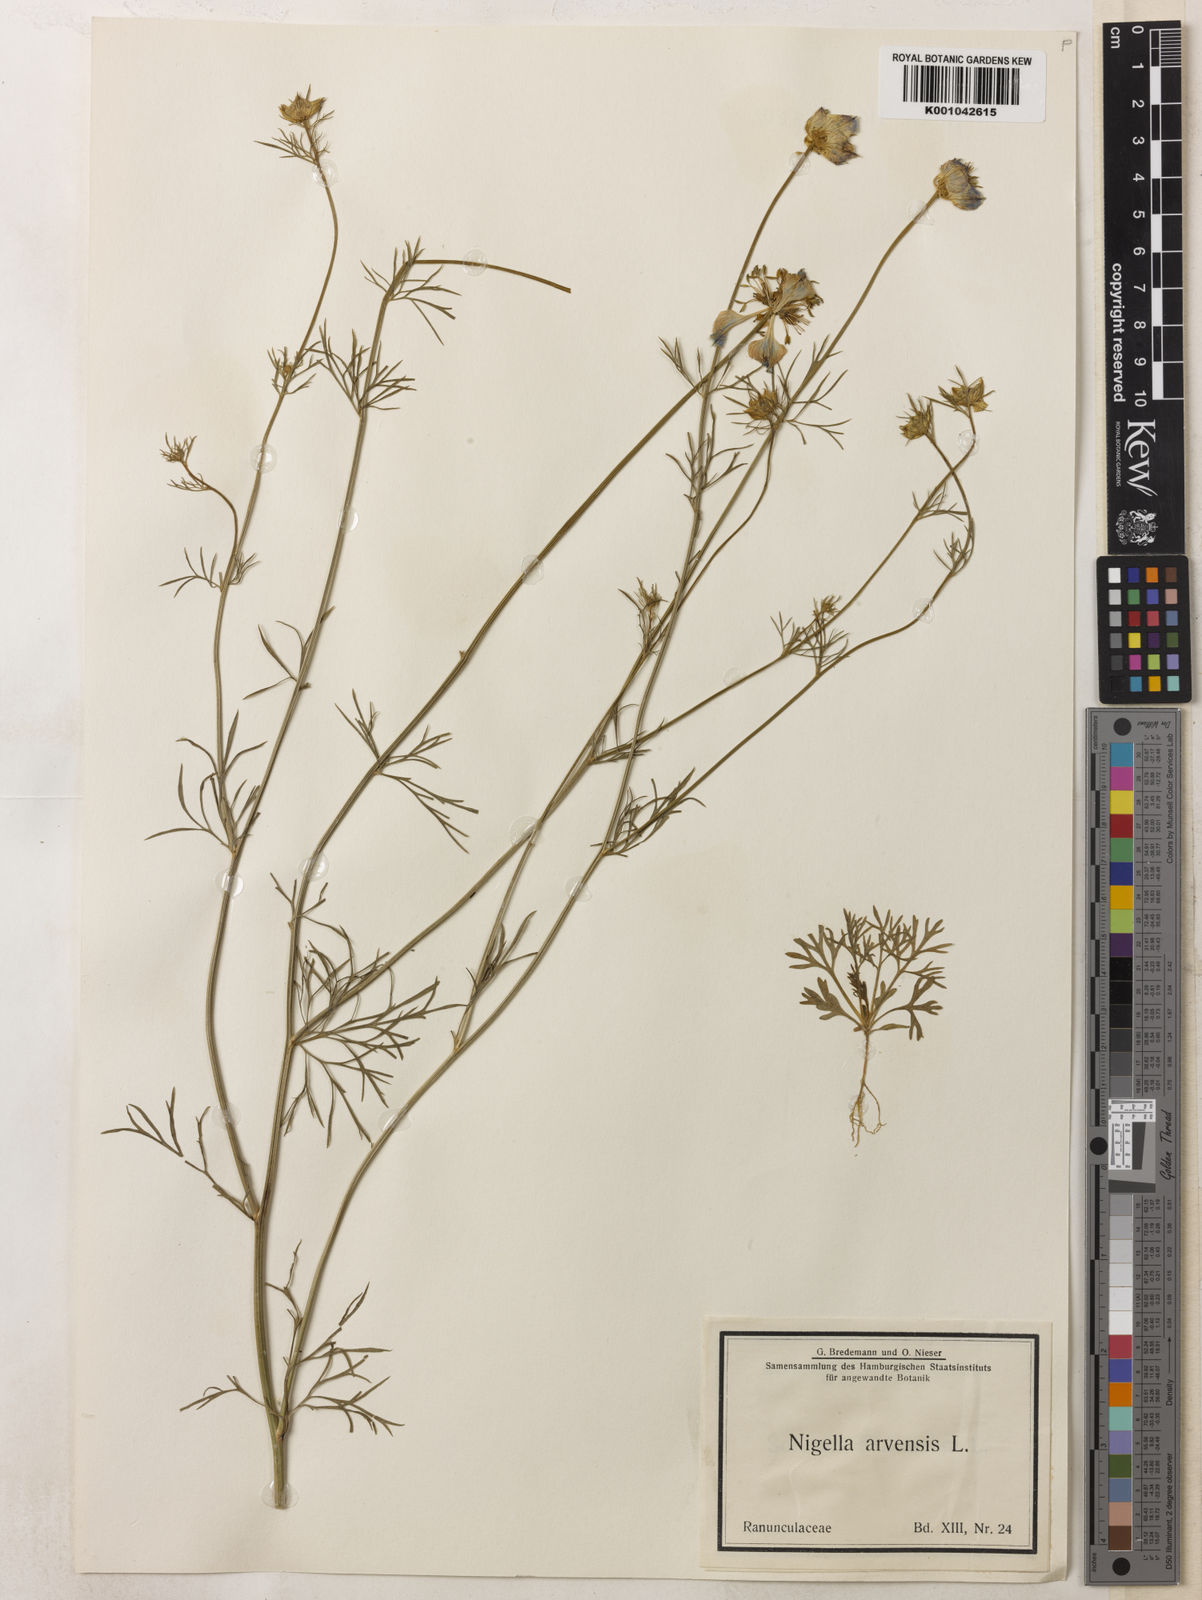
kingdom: Plantae
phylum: Tracheophyta
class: Magnoliopsida
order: Ranunculales
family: Ranunculaceae
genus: Nigella
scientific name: Nigella arvensis
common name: Wild fennel-flower
